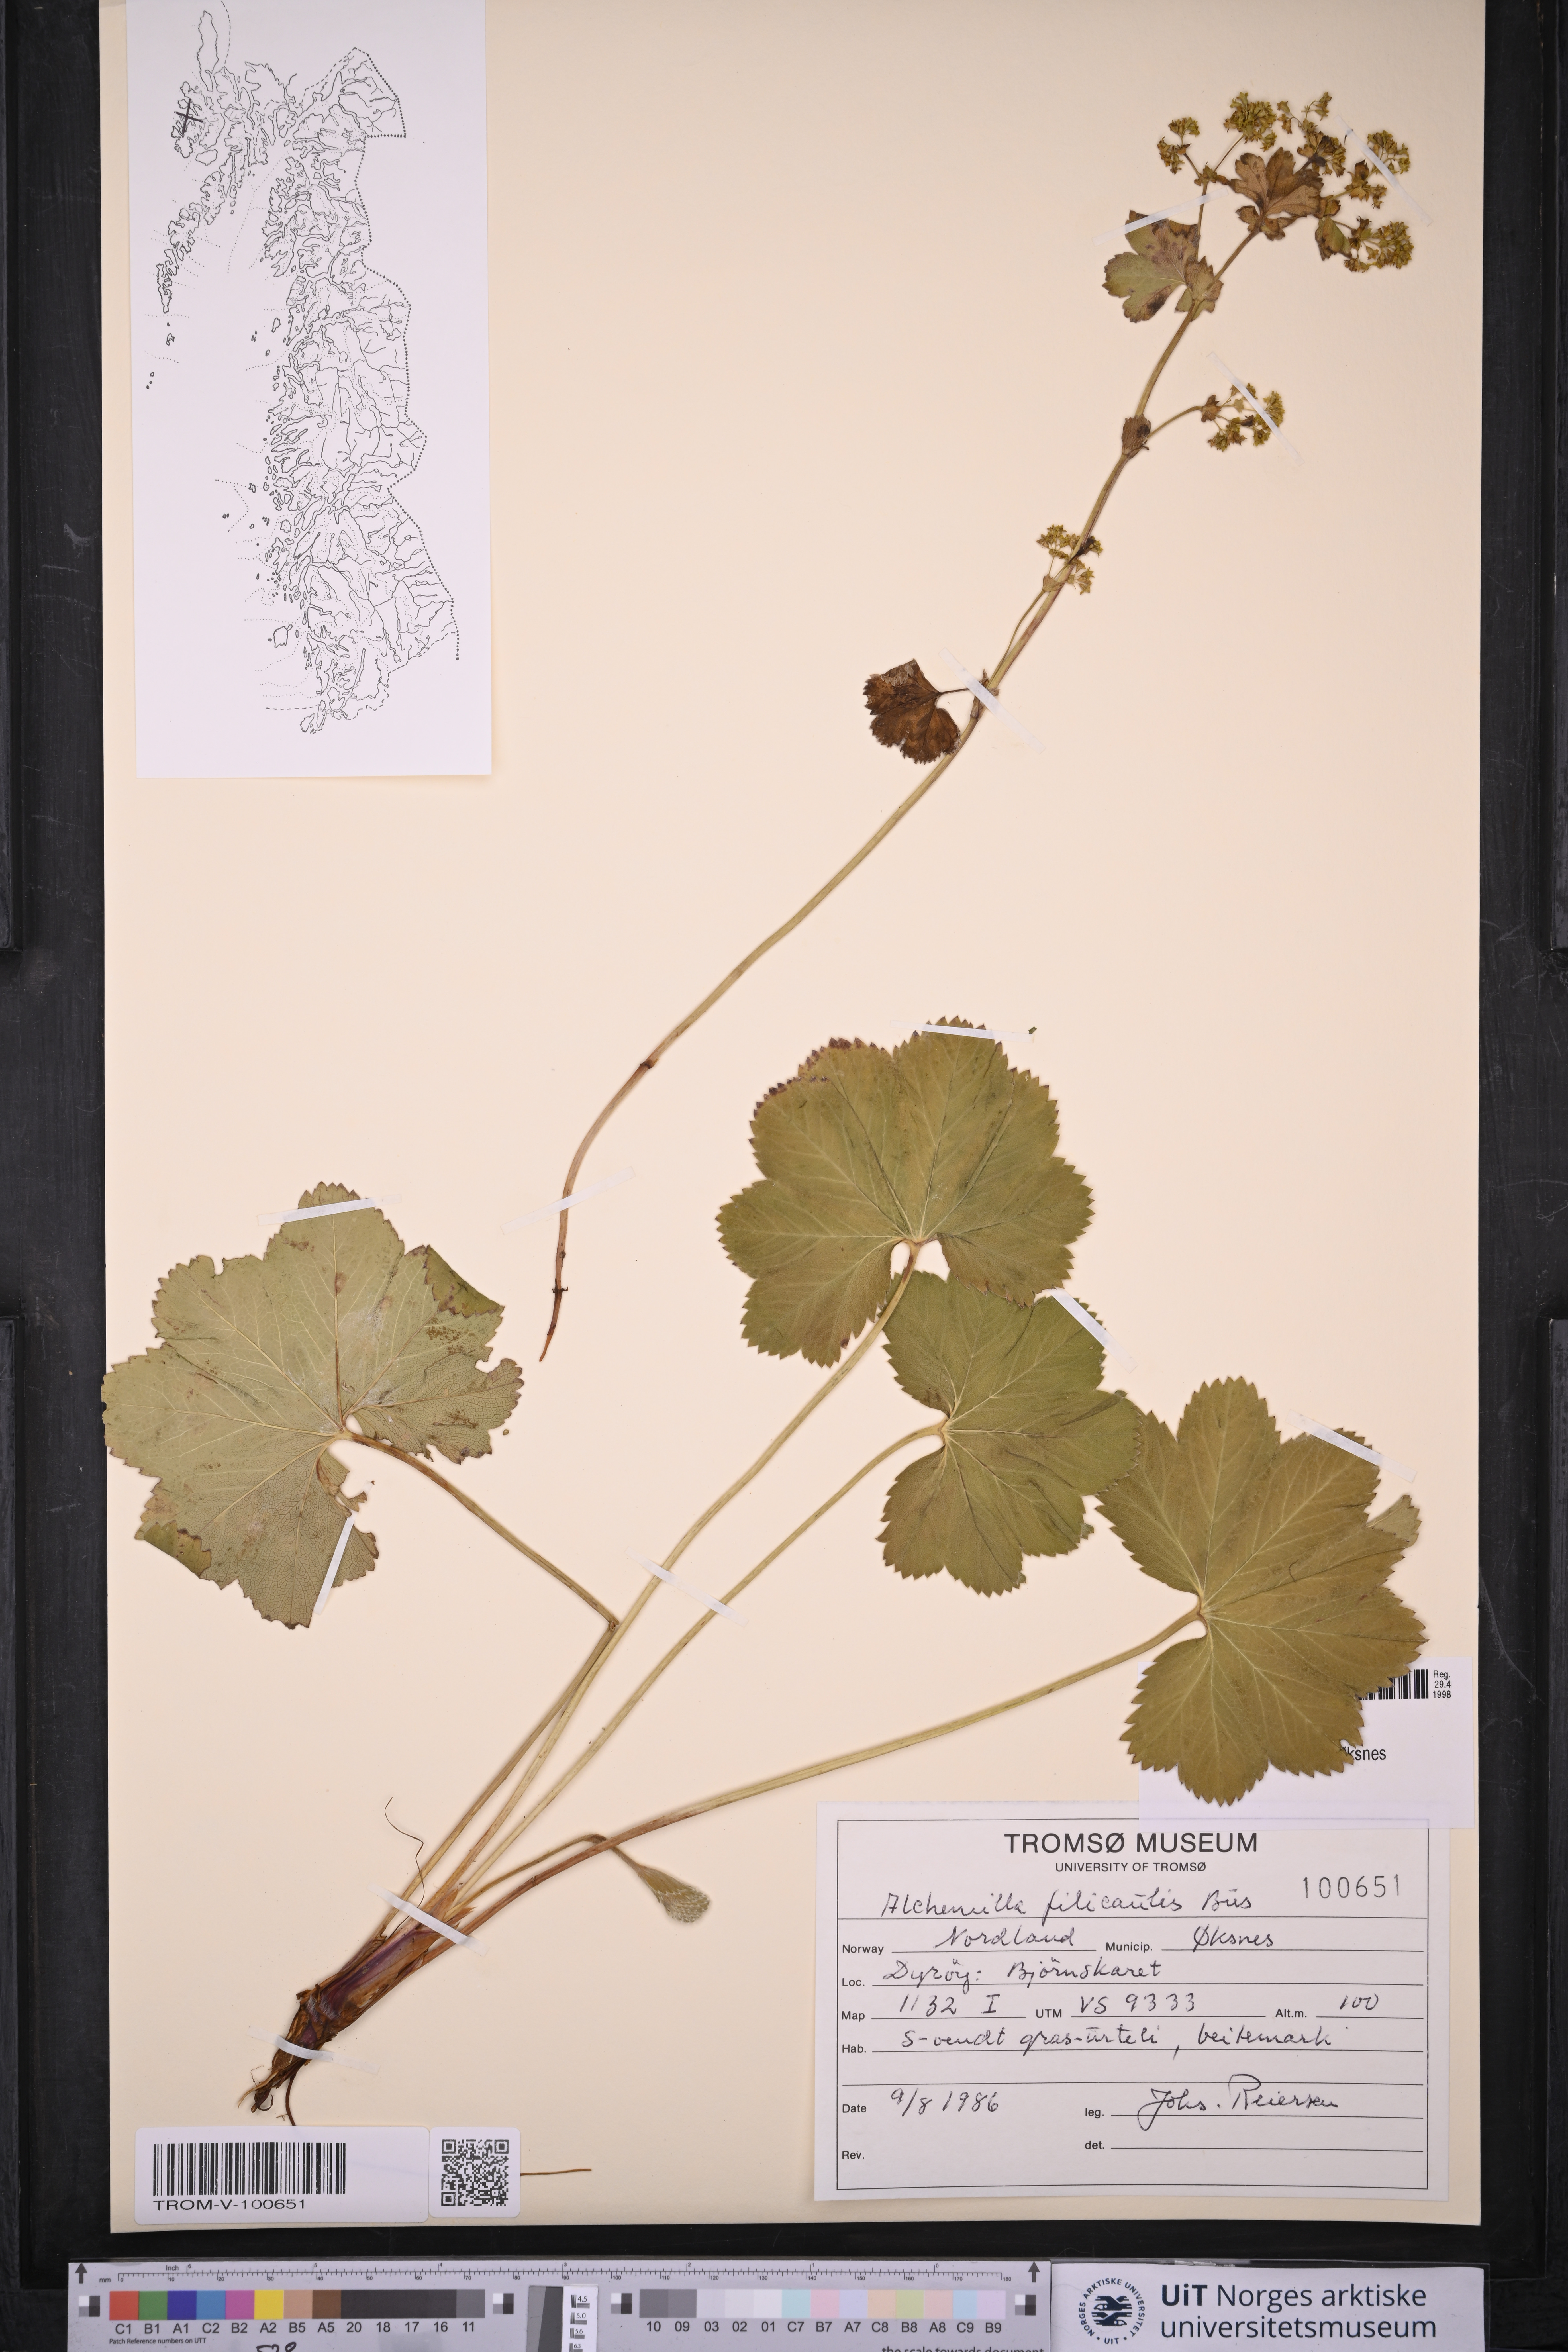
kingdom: Plantae
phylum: Tracheophyta
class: Magnoliopsida
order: Rosales
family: Rosaceae
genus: Alchemilla
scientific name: Alchemilla filicaulis
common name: Hairy lady's-mantle
